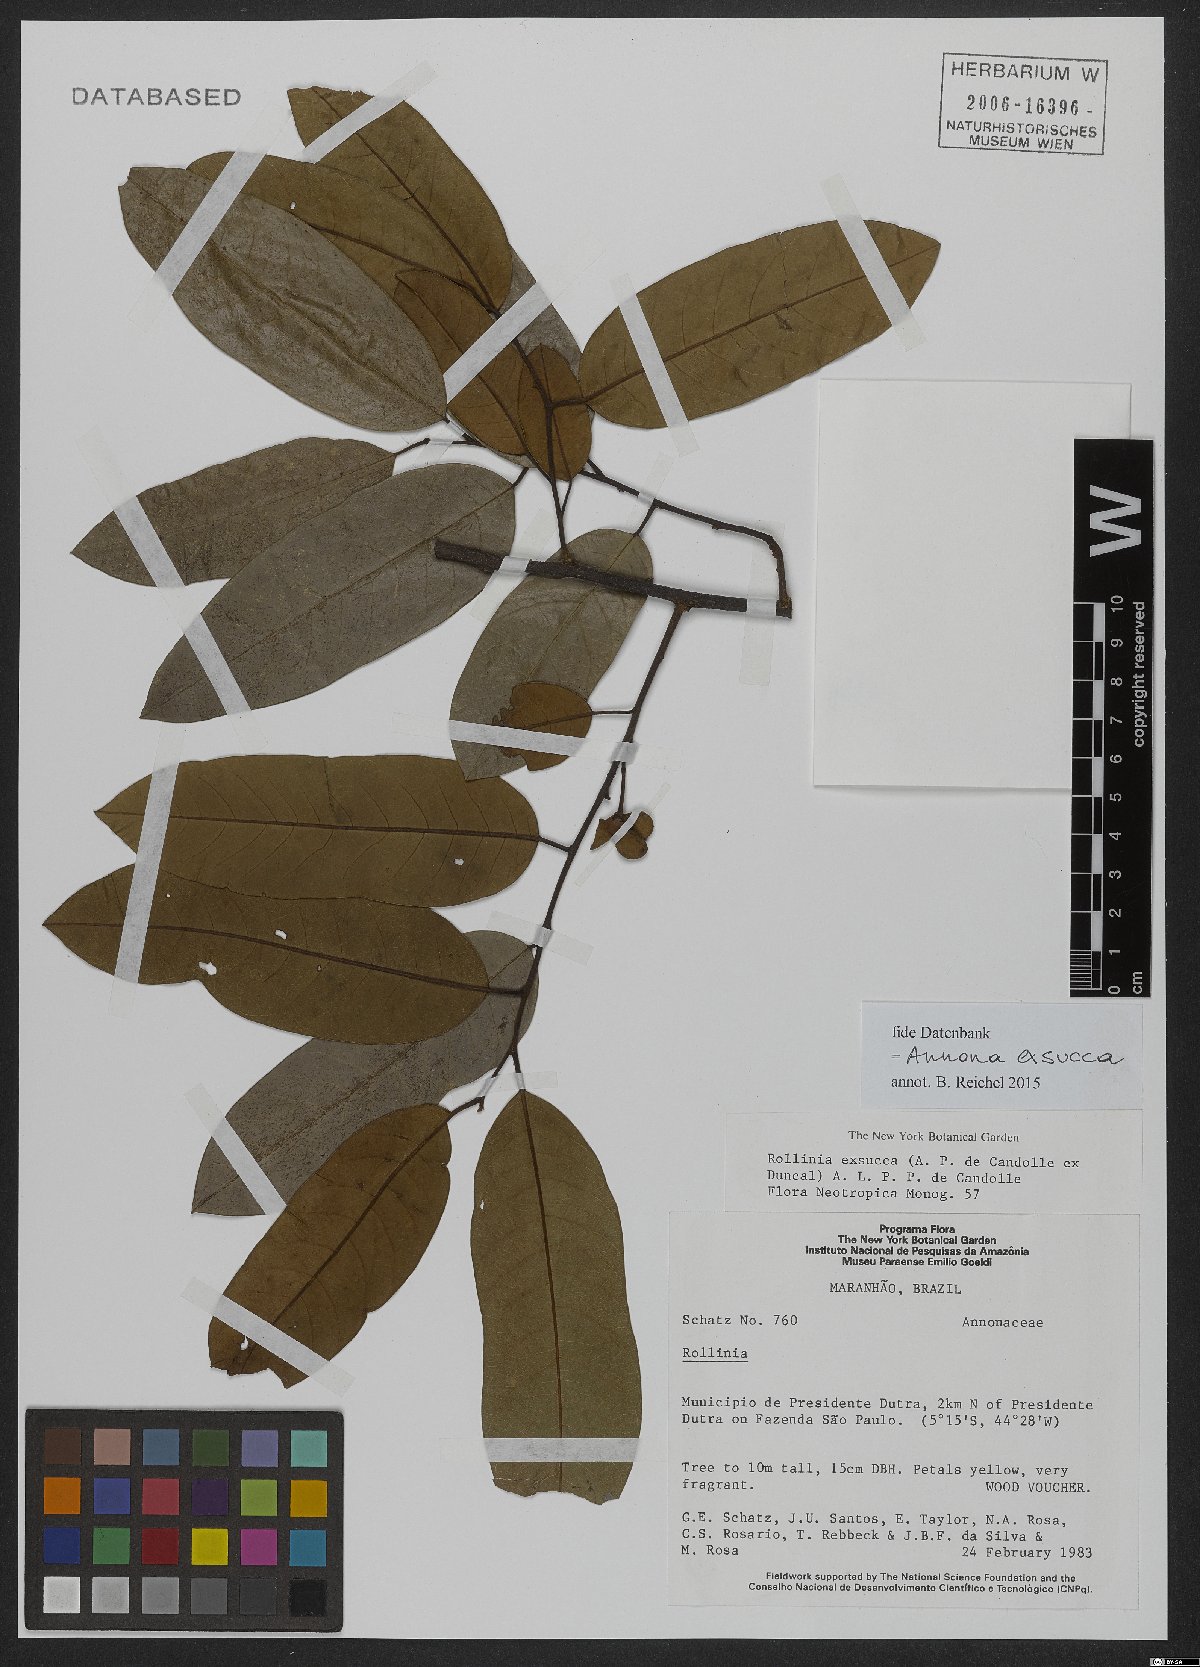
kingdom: Plantae
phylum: Tracheophyta
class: Magnoliopsida
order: Magnoliales
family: Annonaceae
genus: Annona
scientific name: Annona exsucca
